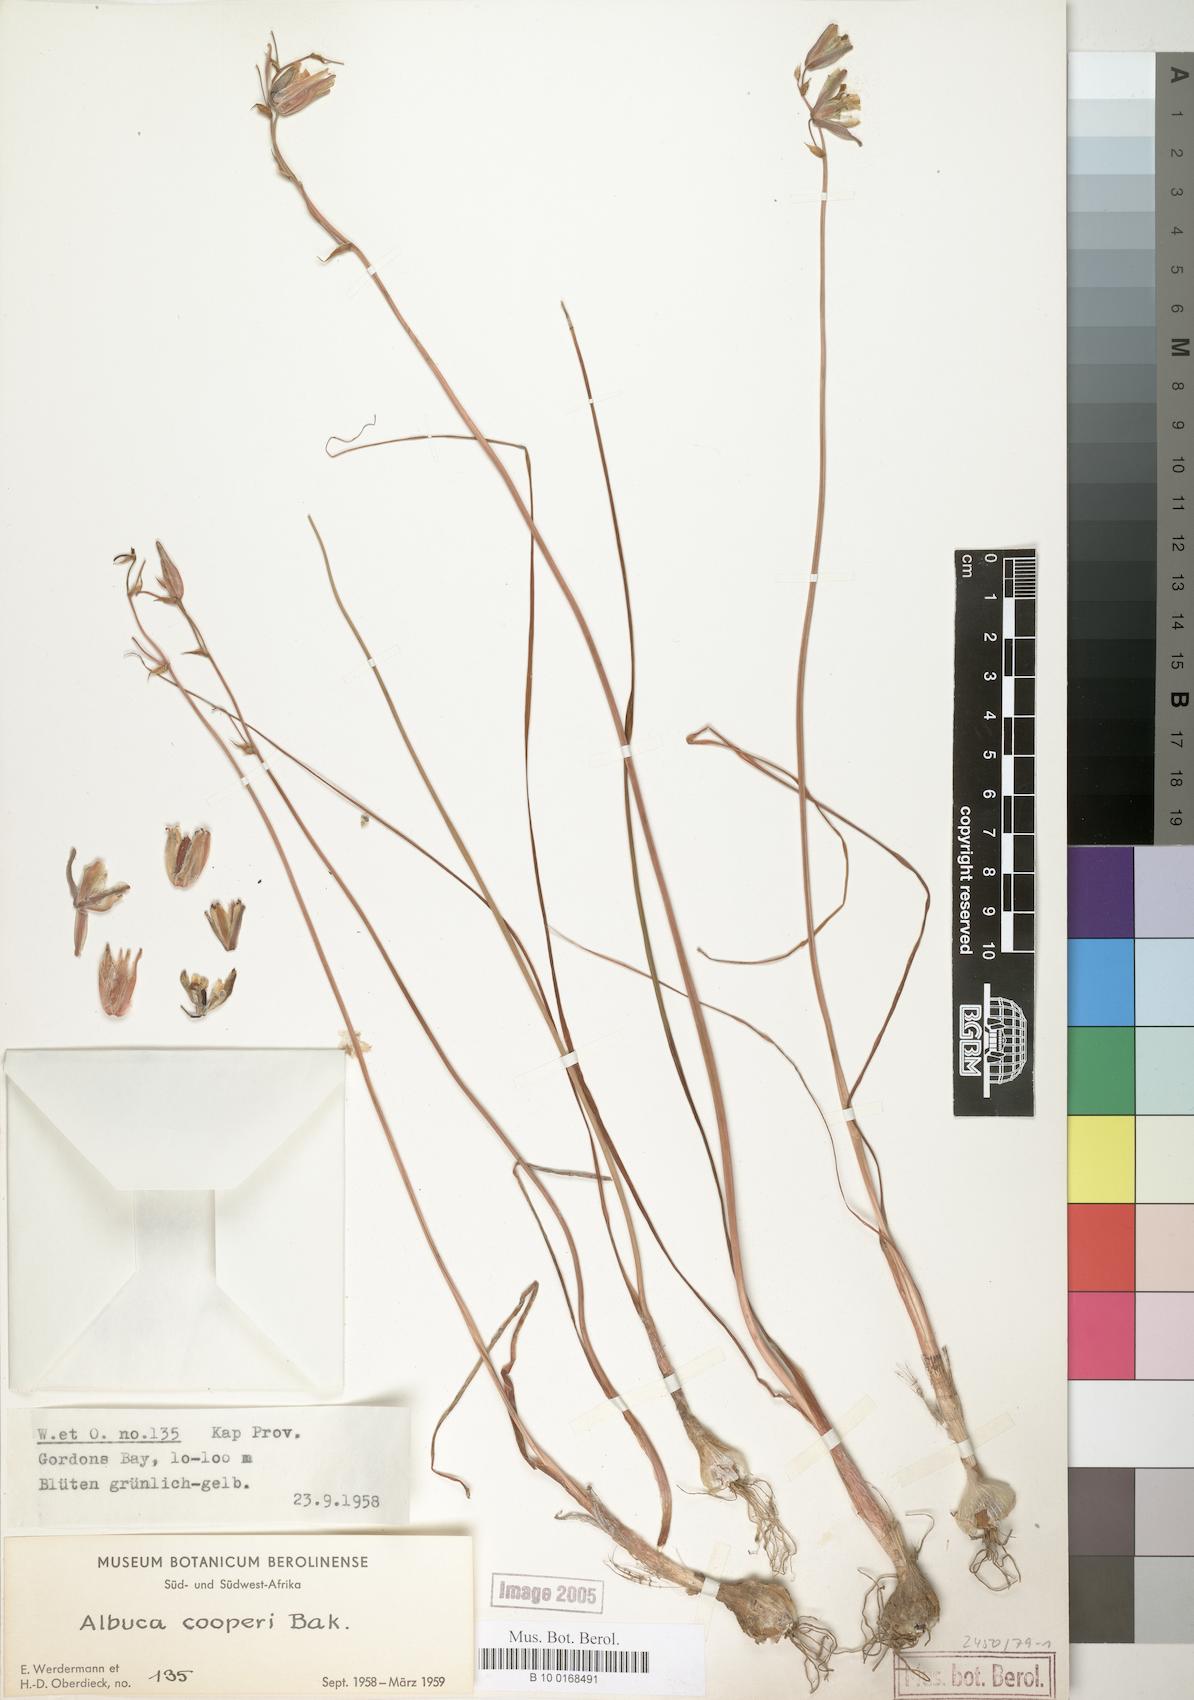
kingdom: Plantae
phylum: Tracheophyta
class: Liliopsida
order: Asparagales
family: Asparagaceae
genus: Albuca
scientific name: Albuca cooperi
